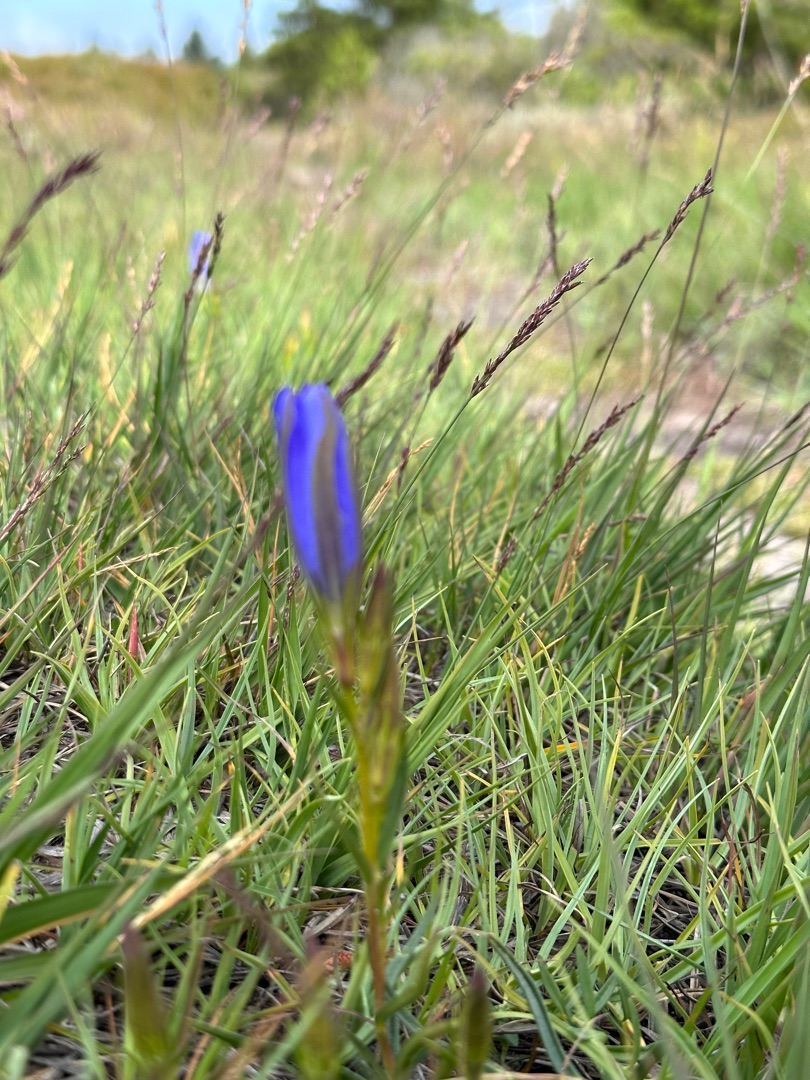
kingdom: Plantae
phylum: Tracheophyta
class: Magnoliopsida
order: Gentianales
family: Gentianaceae
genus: Gentiana
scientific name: Gentiana pneumonanthe
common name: Klokke-ensian
